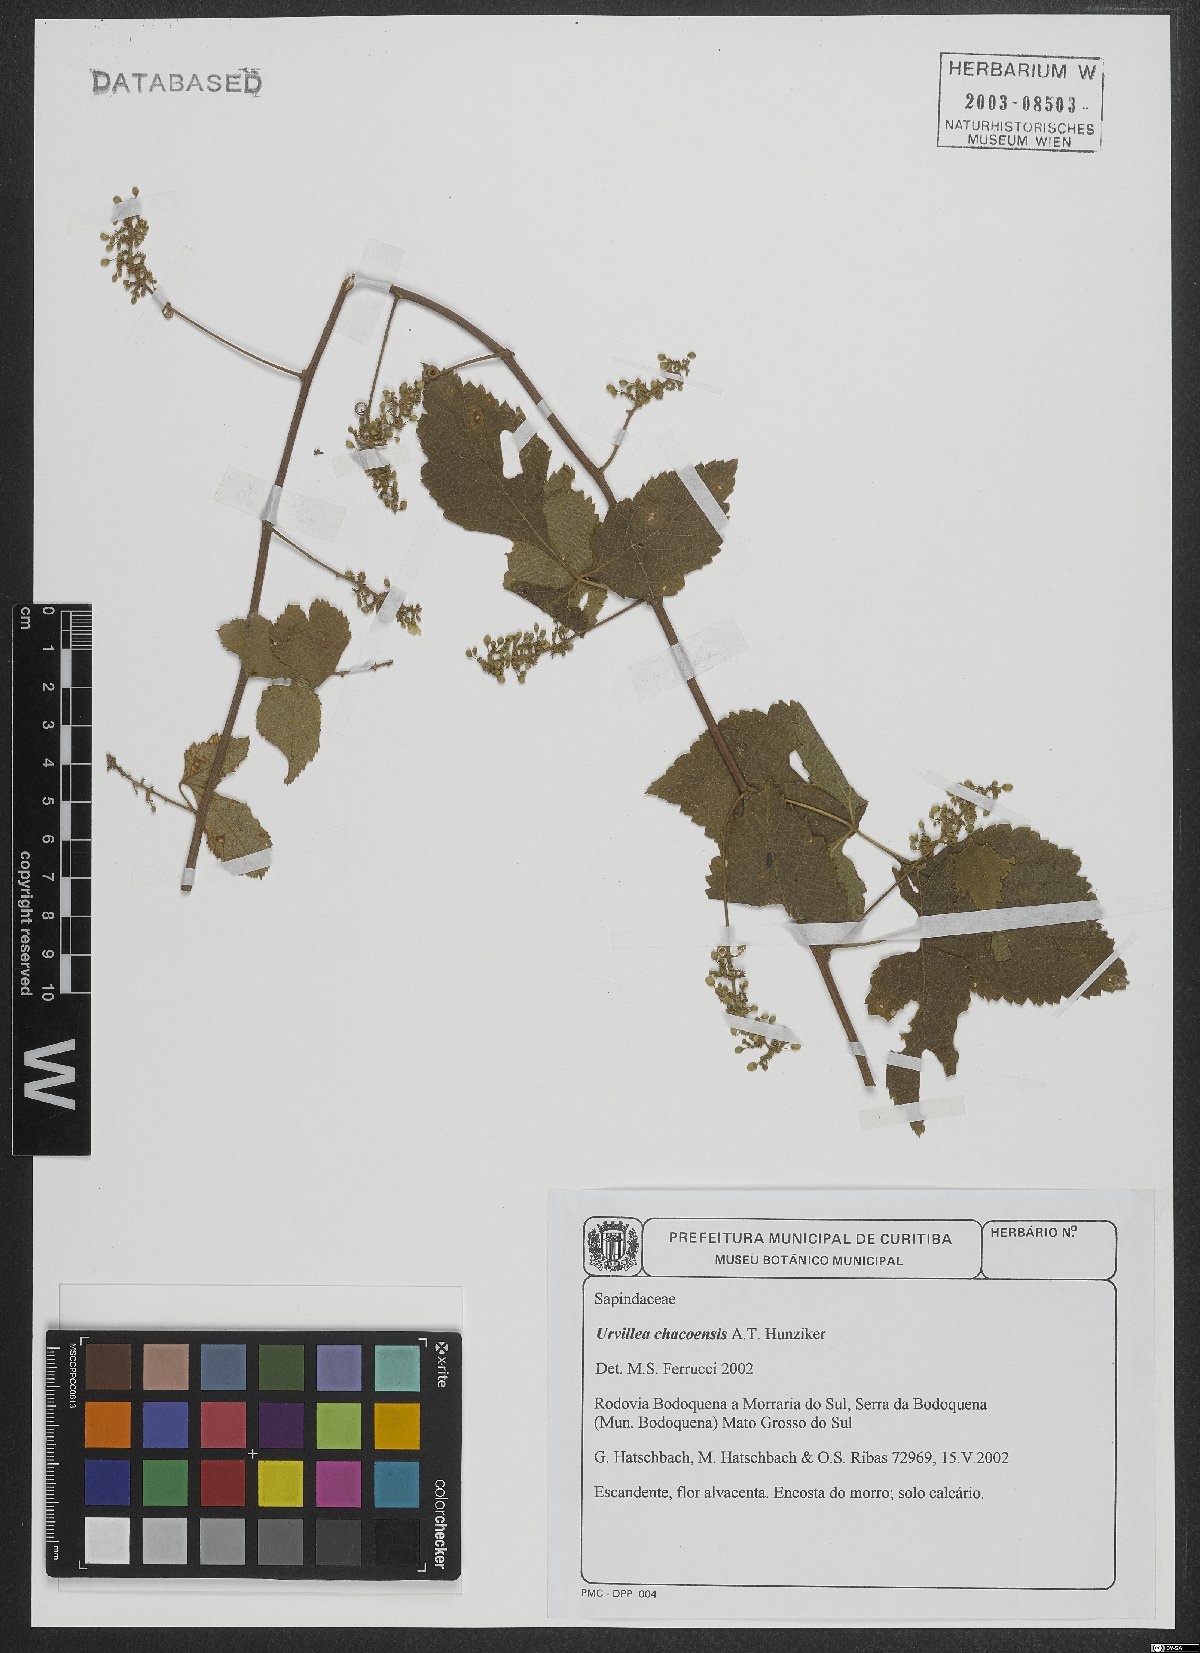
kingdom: Plantae
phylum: Tracheophyta
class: Magnoliopsida
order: Sapindales
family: Sapindaceae
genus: Urvillea
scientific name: Urvillea chacoensis
